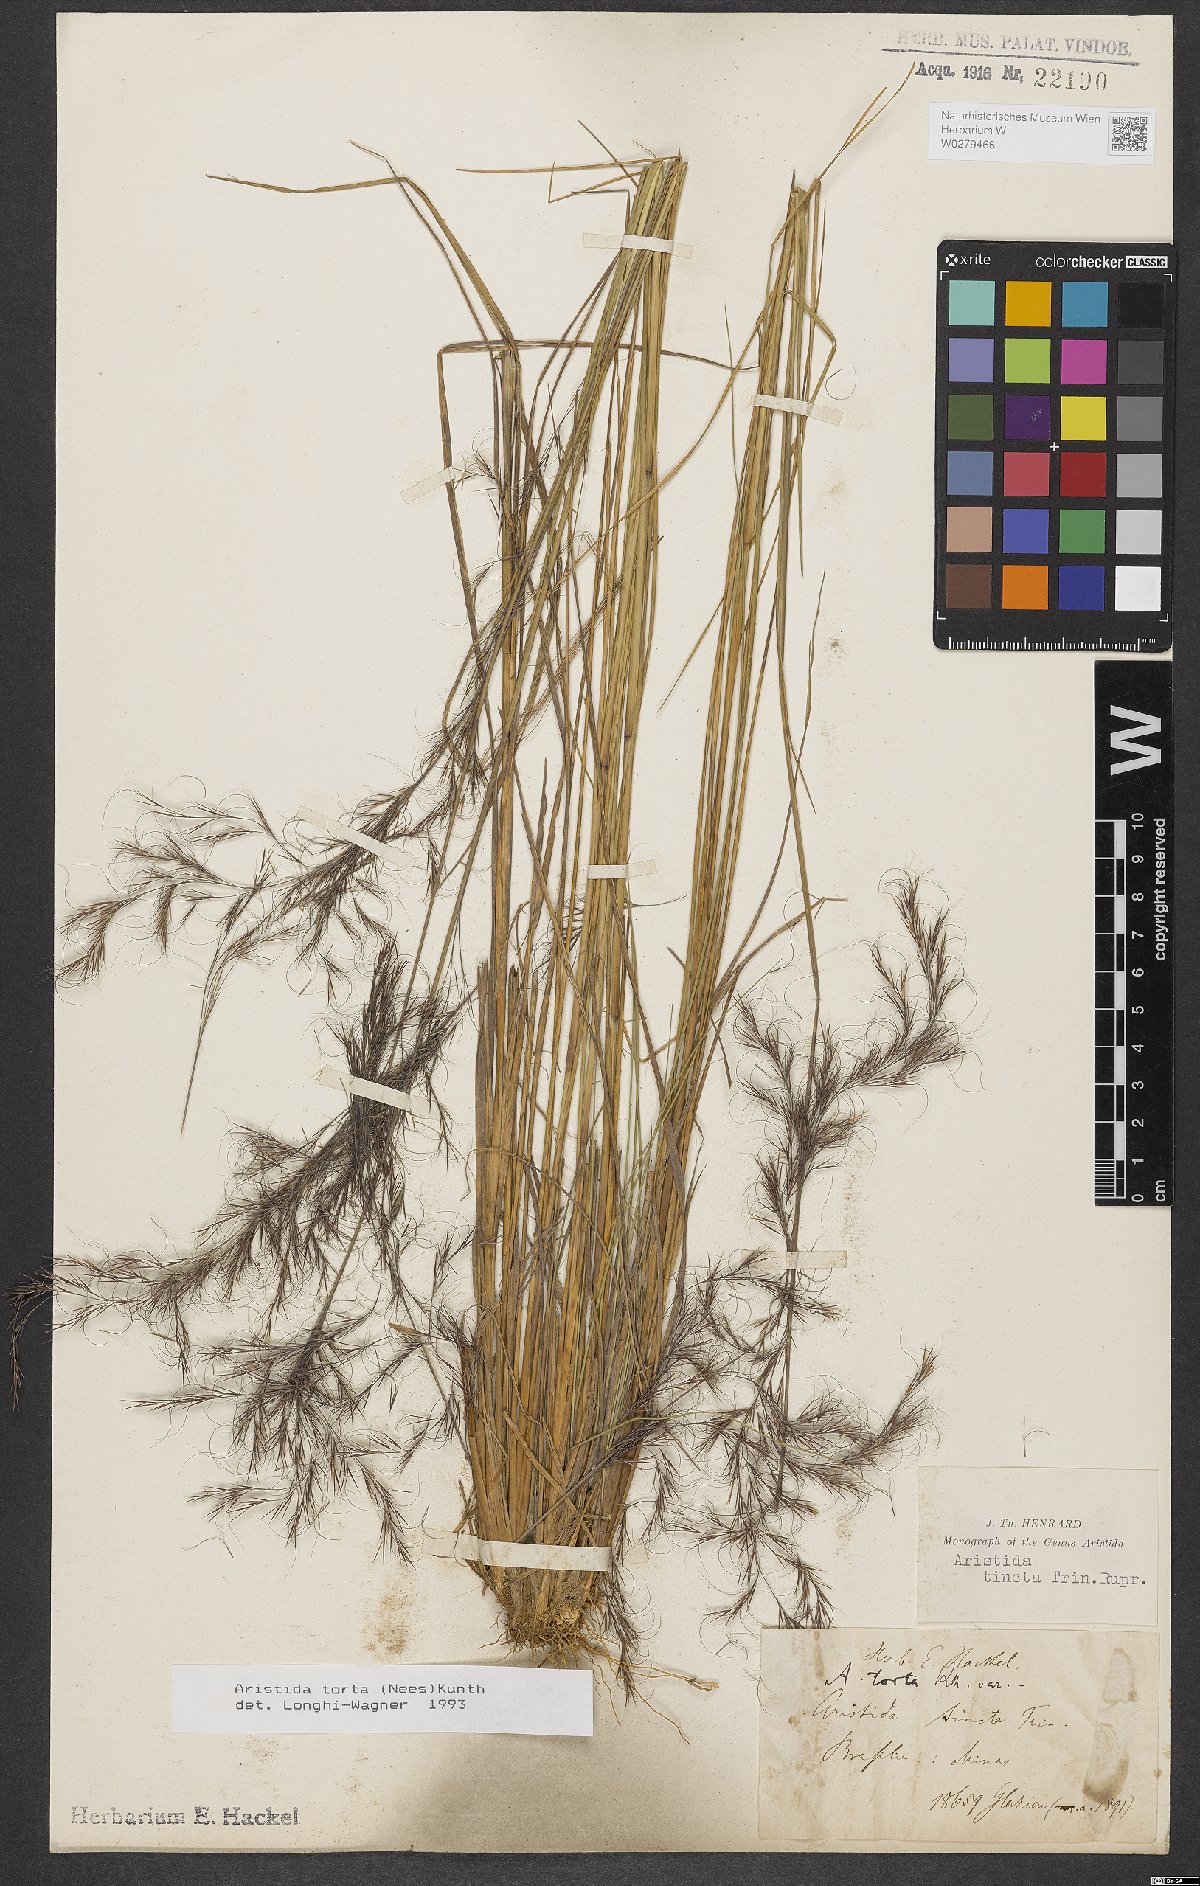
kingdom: Plantae
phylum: Tracheophyta
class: Liliopsida
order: Poales
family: Poaceae
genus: Aristida
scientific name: Aristida torta
